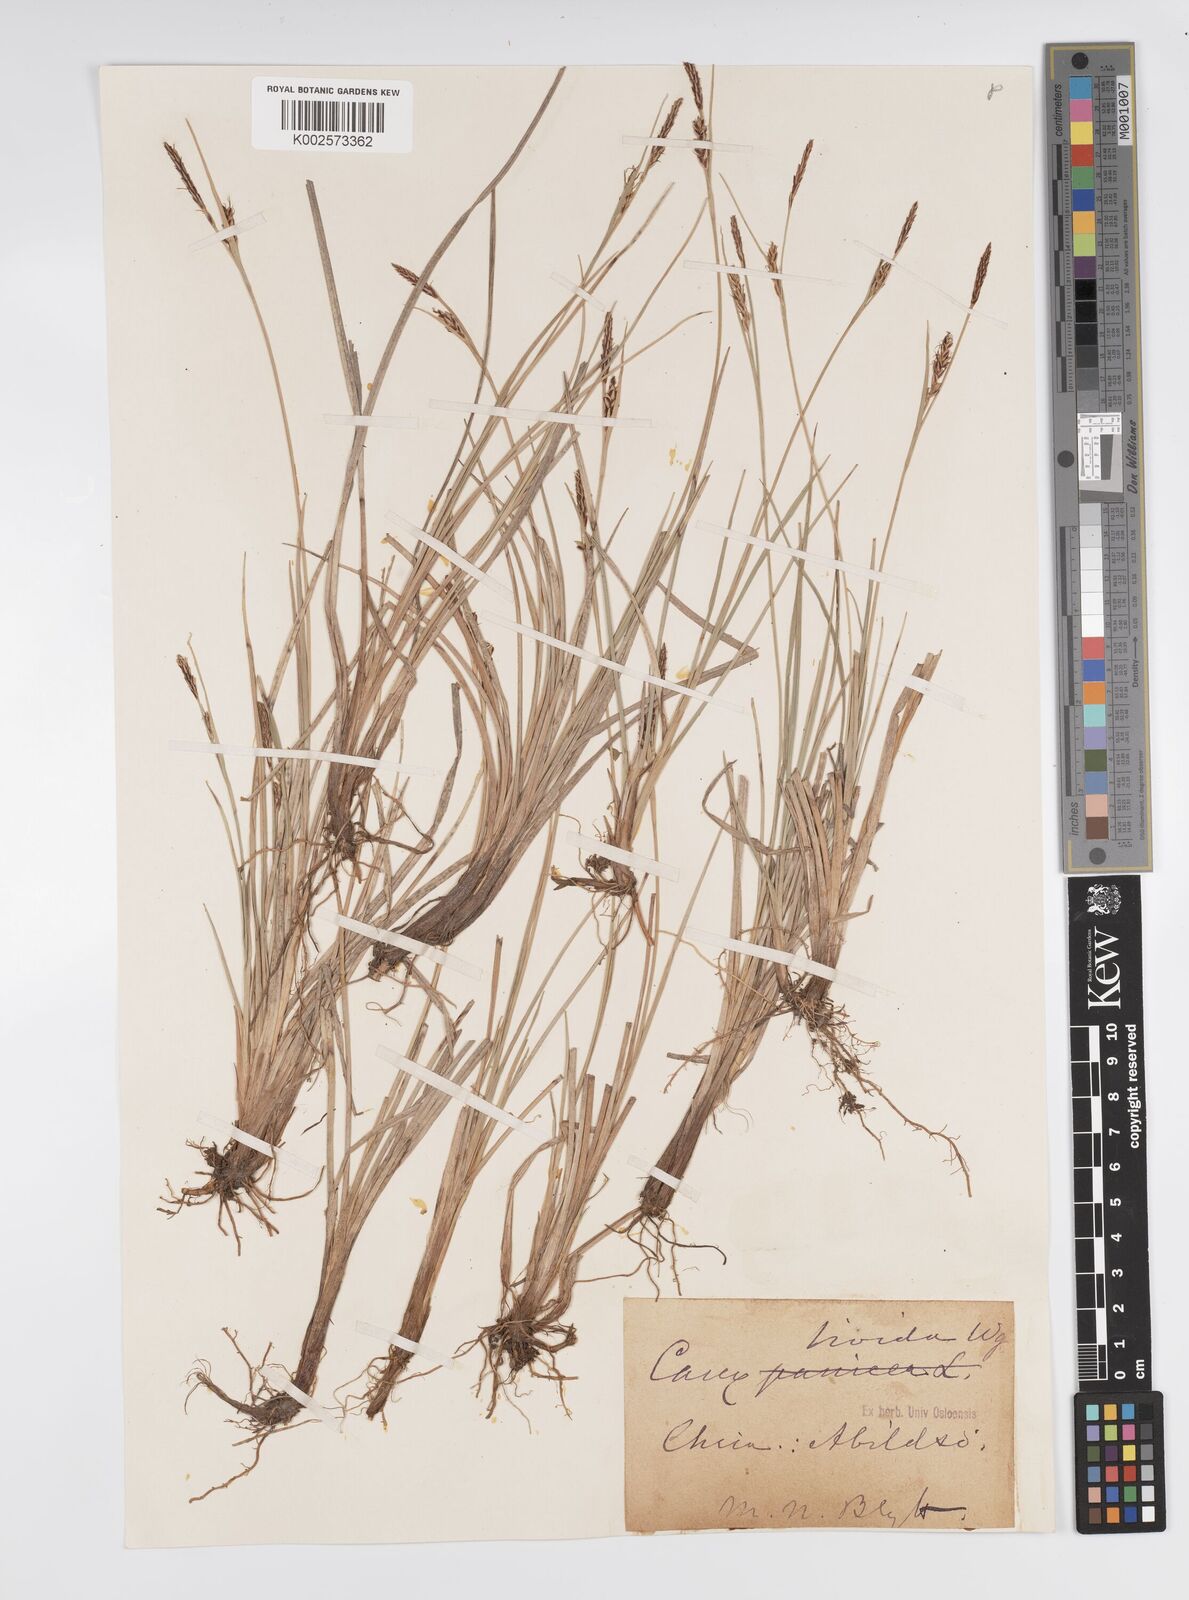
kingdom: Plantae
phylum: Tracheophyta
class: Liliopsida
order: Poales
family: Cyperaceae
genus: Carex
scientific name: Carex livida
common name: Livid sedge
